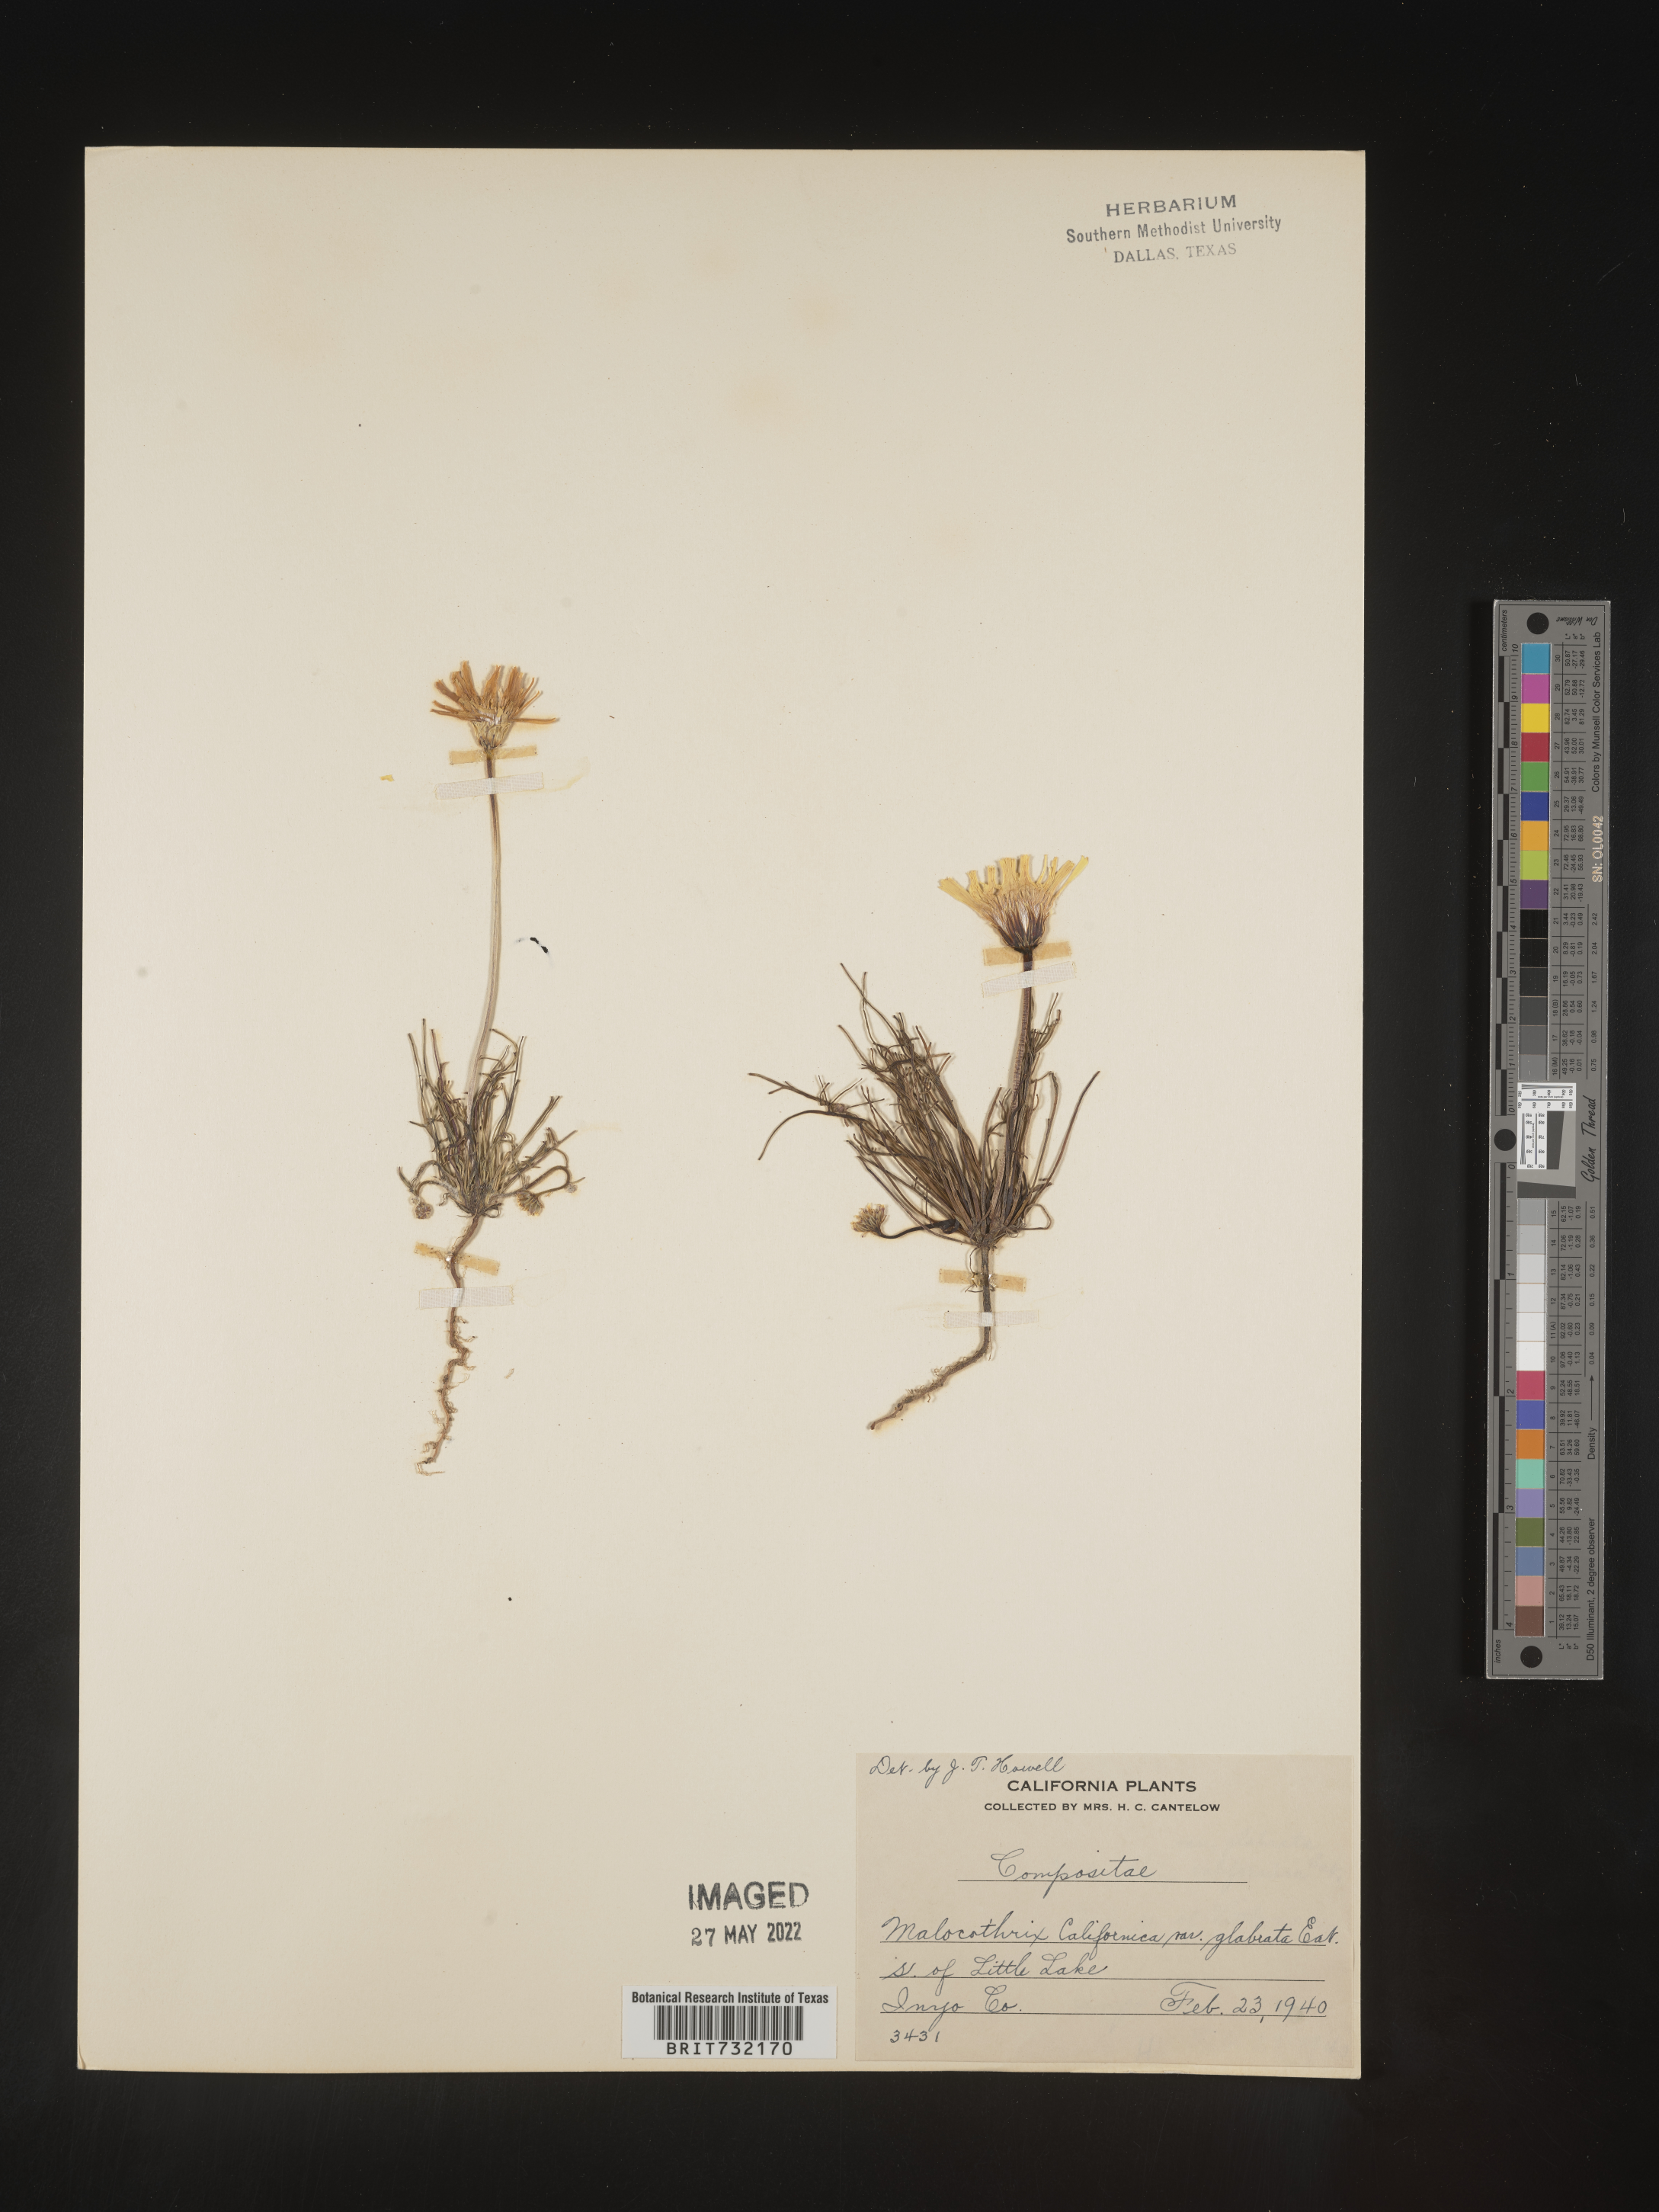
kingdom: Plantae
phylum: Tracheophyta
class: Magnoliopsida
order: Asterales
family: Asteraceae
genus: Malacothrix
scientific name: Malacothrix
